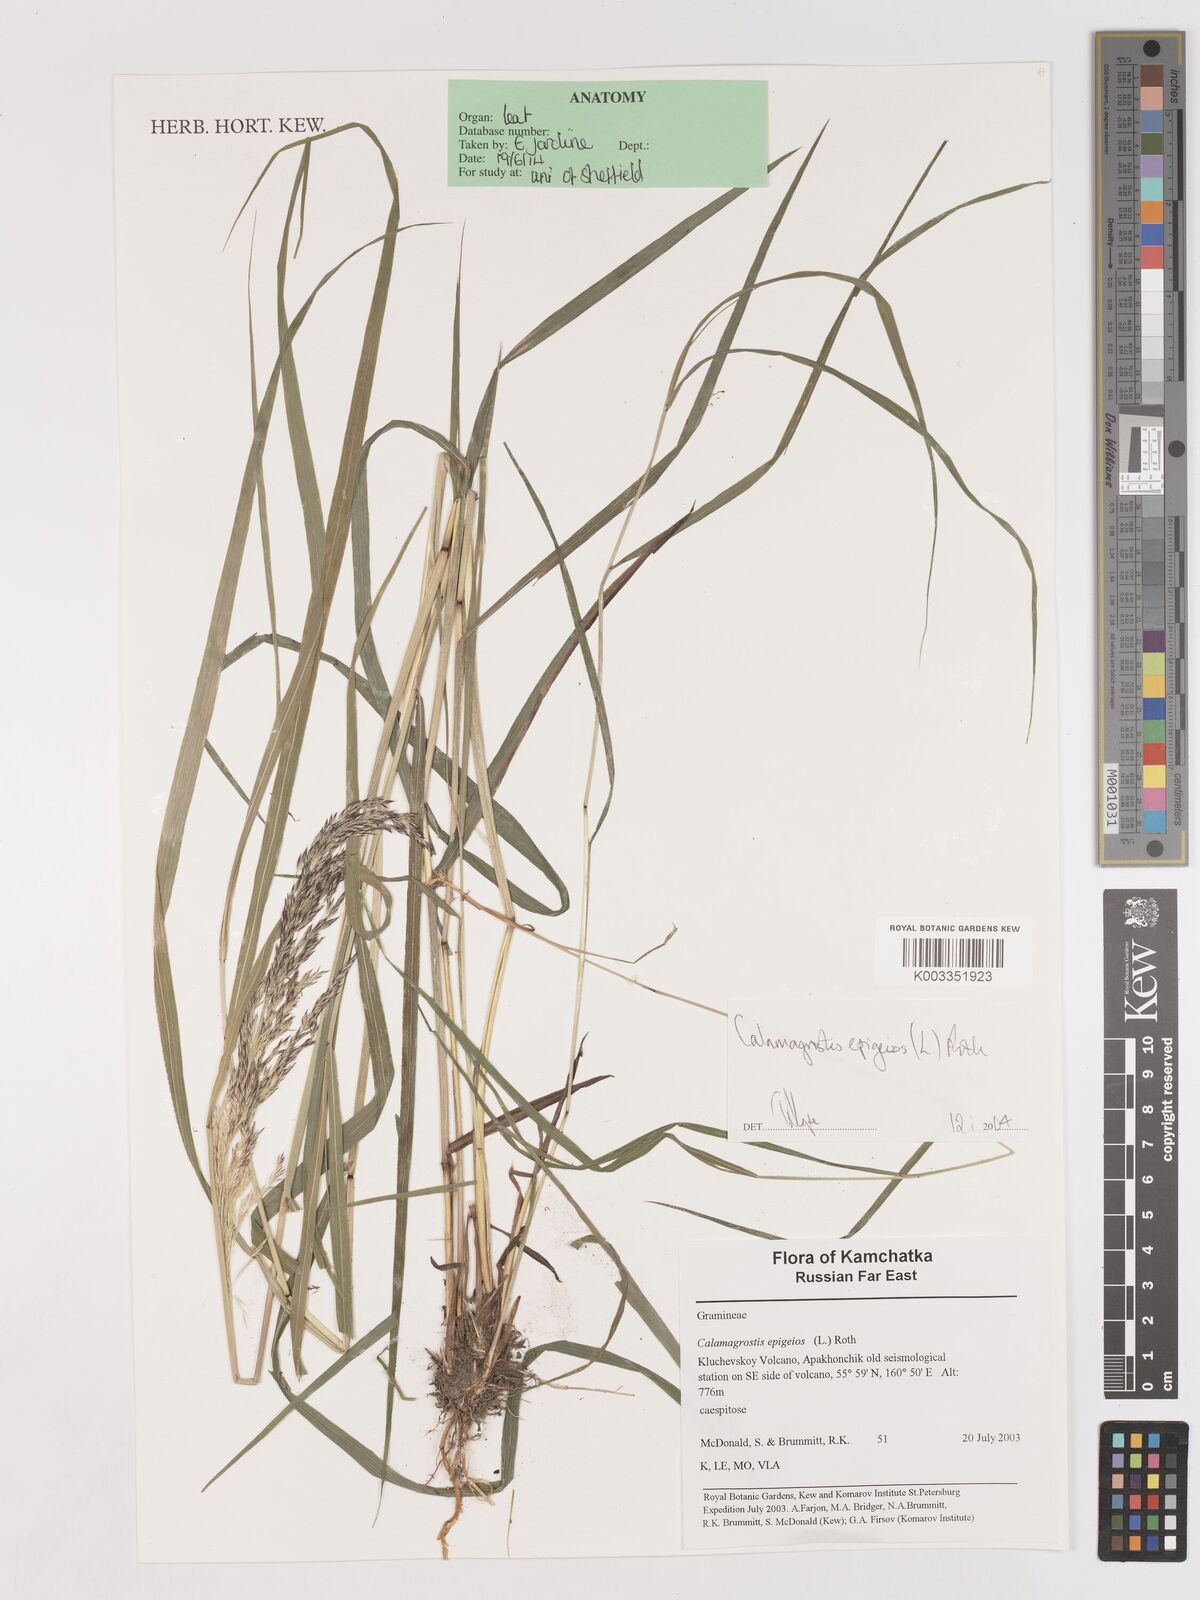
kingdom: Plantae
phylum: Tracheophyta
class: Liliopsida
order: Poales
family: Poaceae
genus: Calamagrostis
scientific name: Calamagrostis epigejos
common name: Wood small-reed
